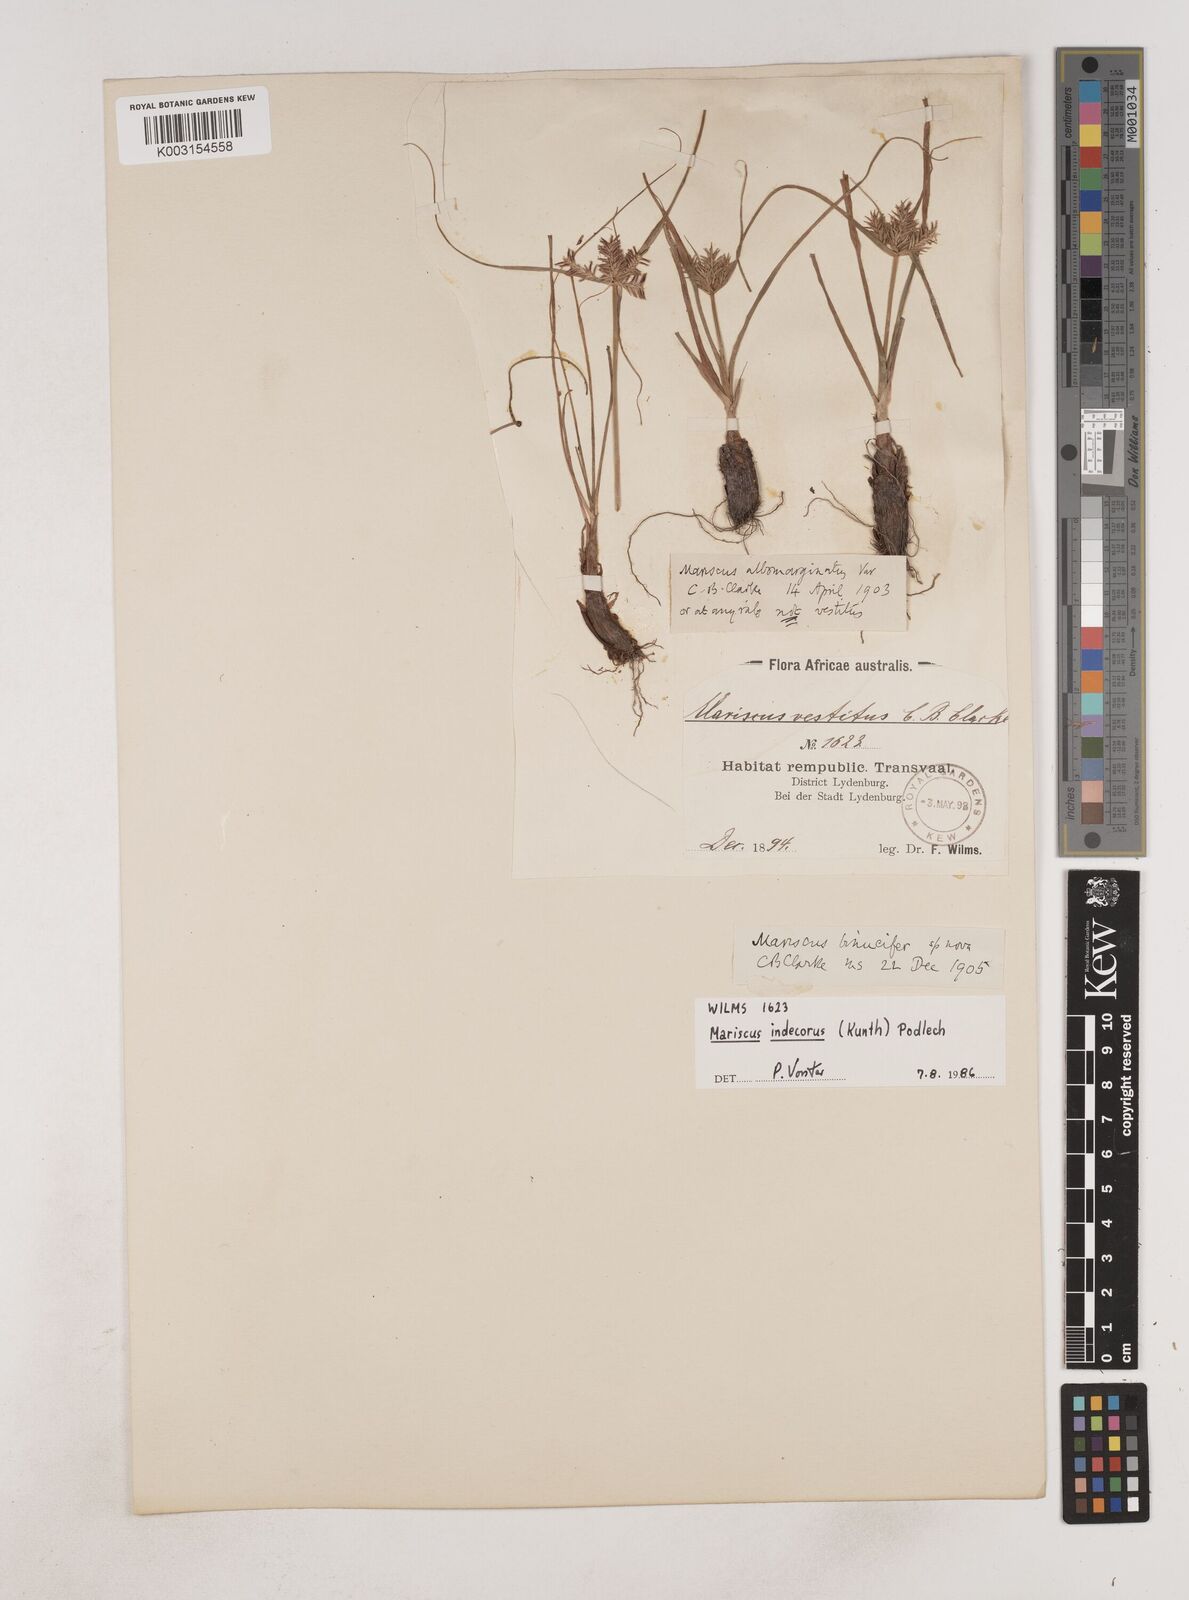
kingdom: Plantae
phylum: Tracheophyta
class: Liliopsida
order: Poales
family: Cyperaceae
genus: Cyperus
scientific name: Cyperus indecorus
